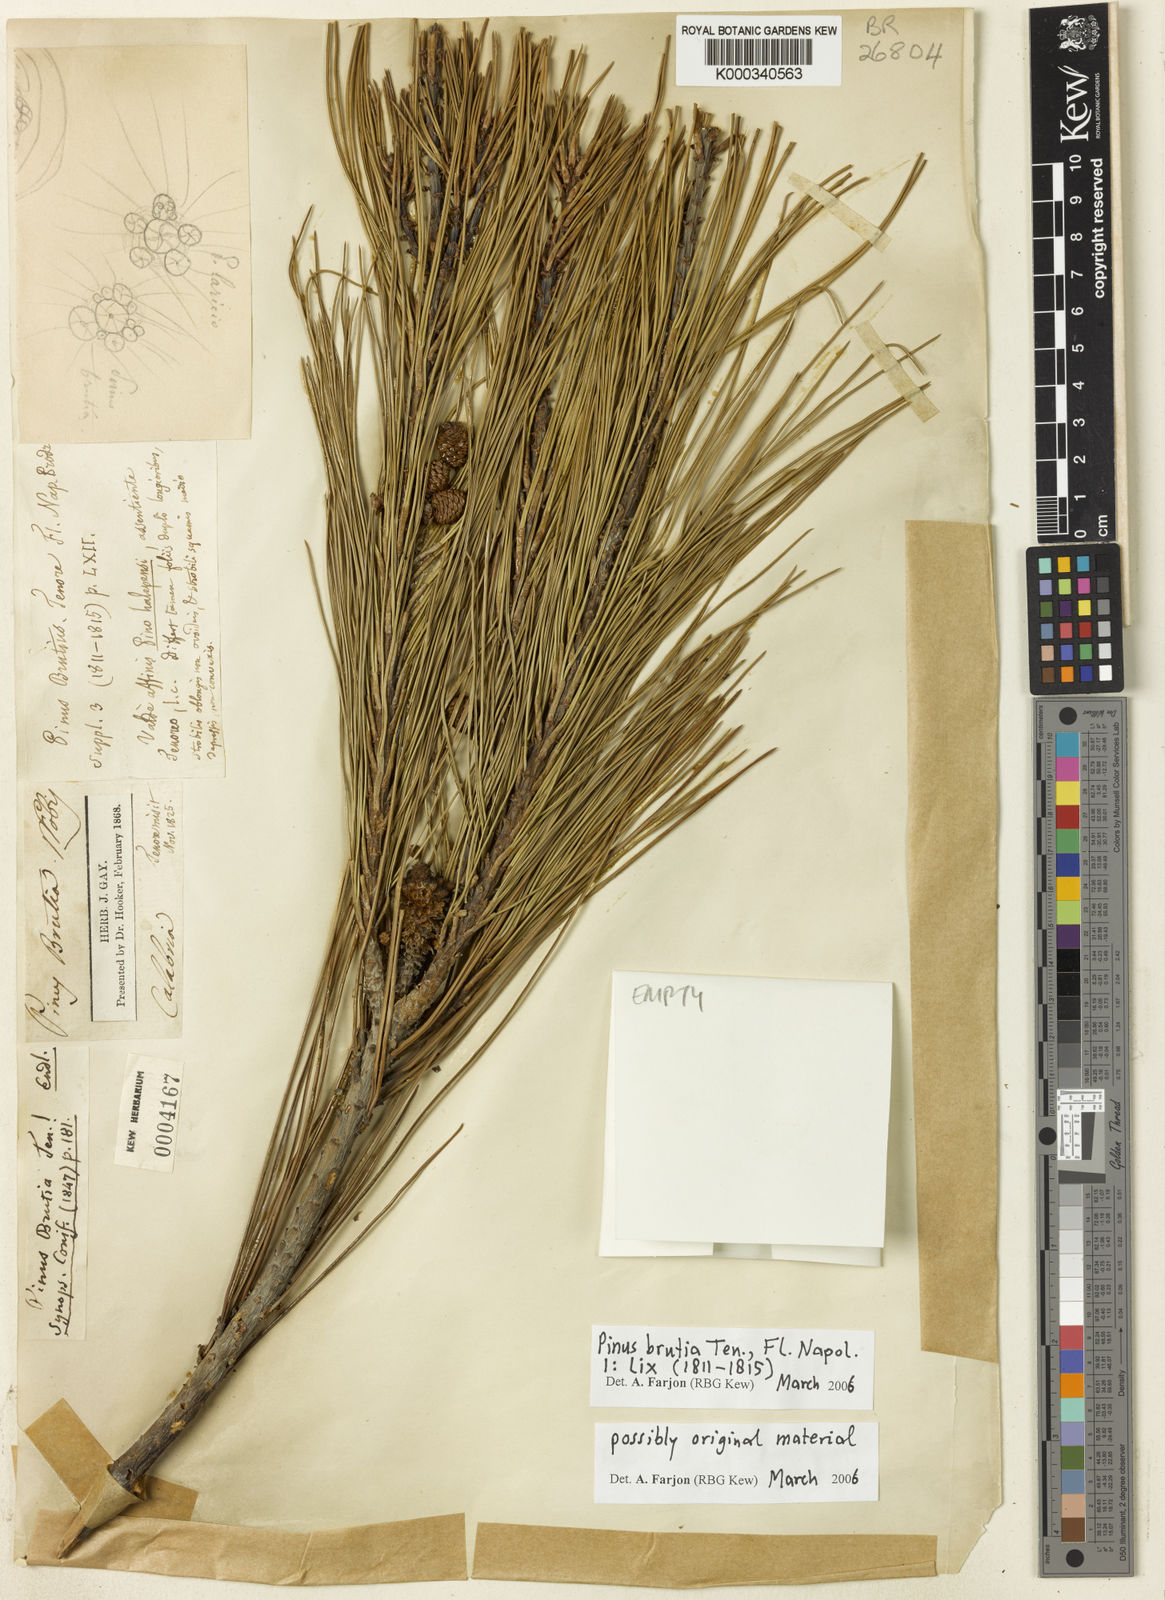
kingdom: Plantae
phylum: Tracheophyta
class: Pinopsida
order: Pinales
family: Pinaceae
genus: Pinus
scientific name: Pinus brutia
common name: Turkish pine
